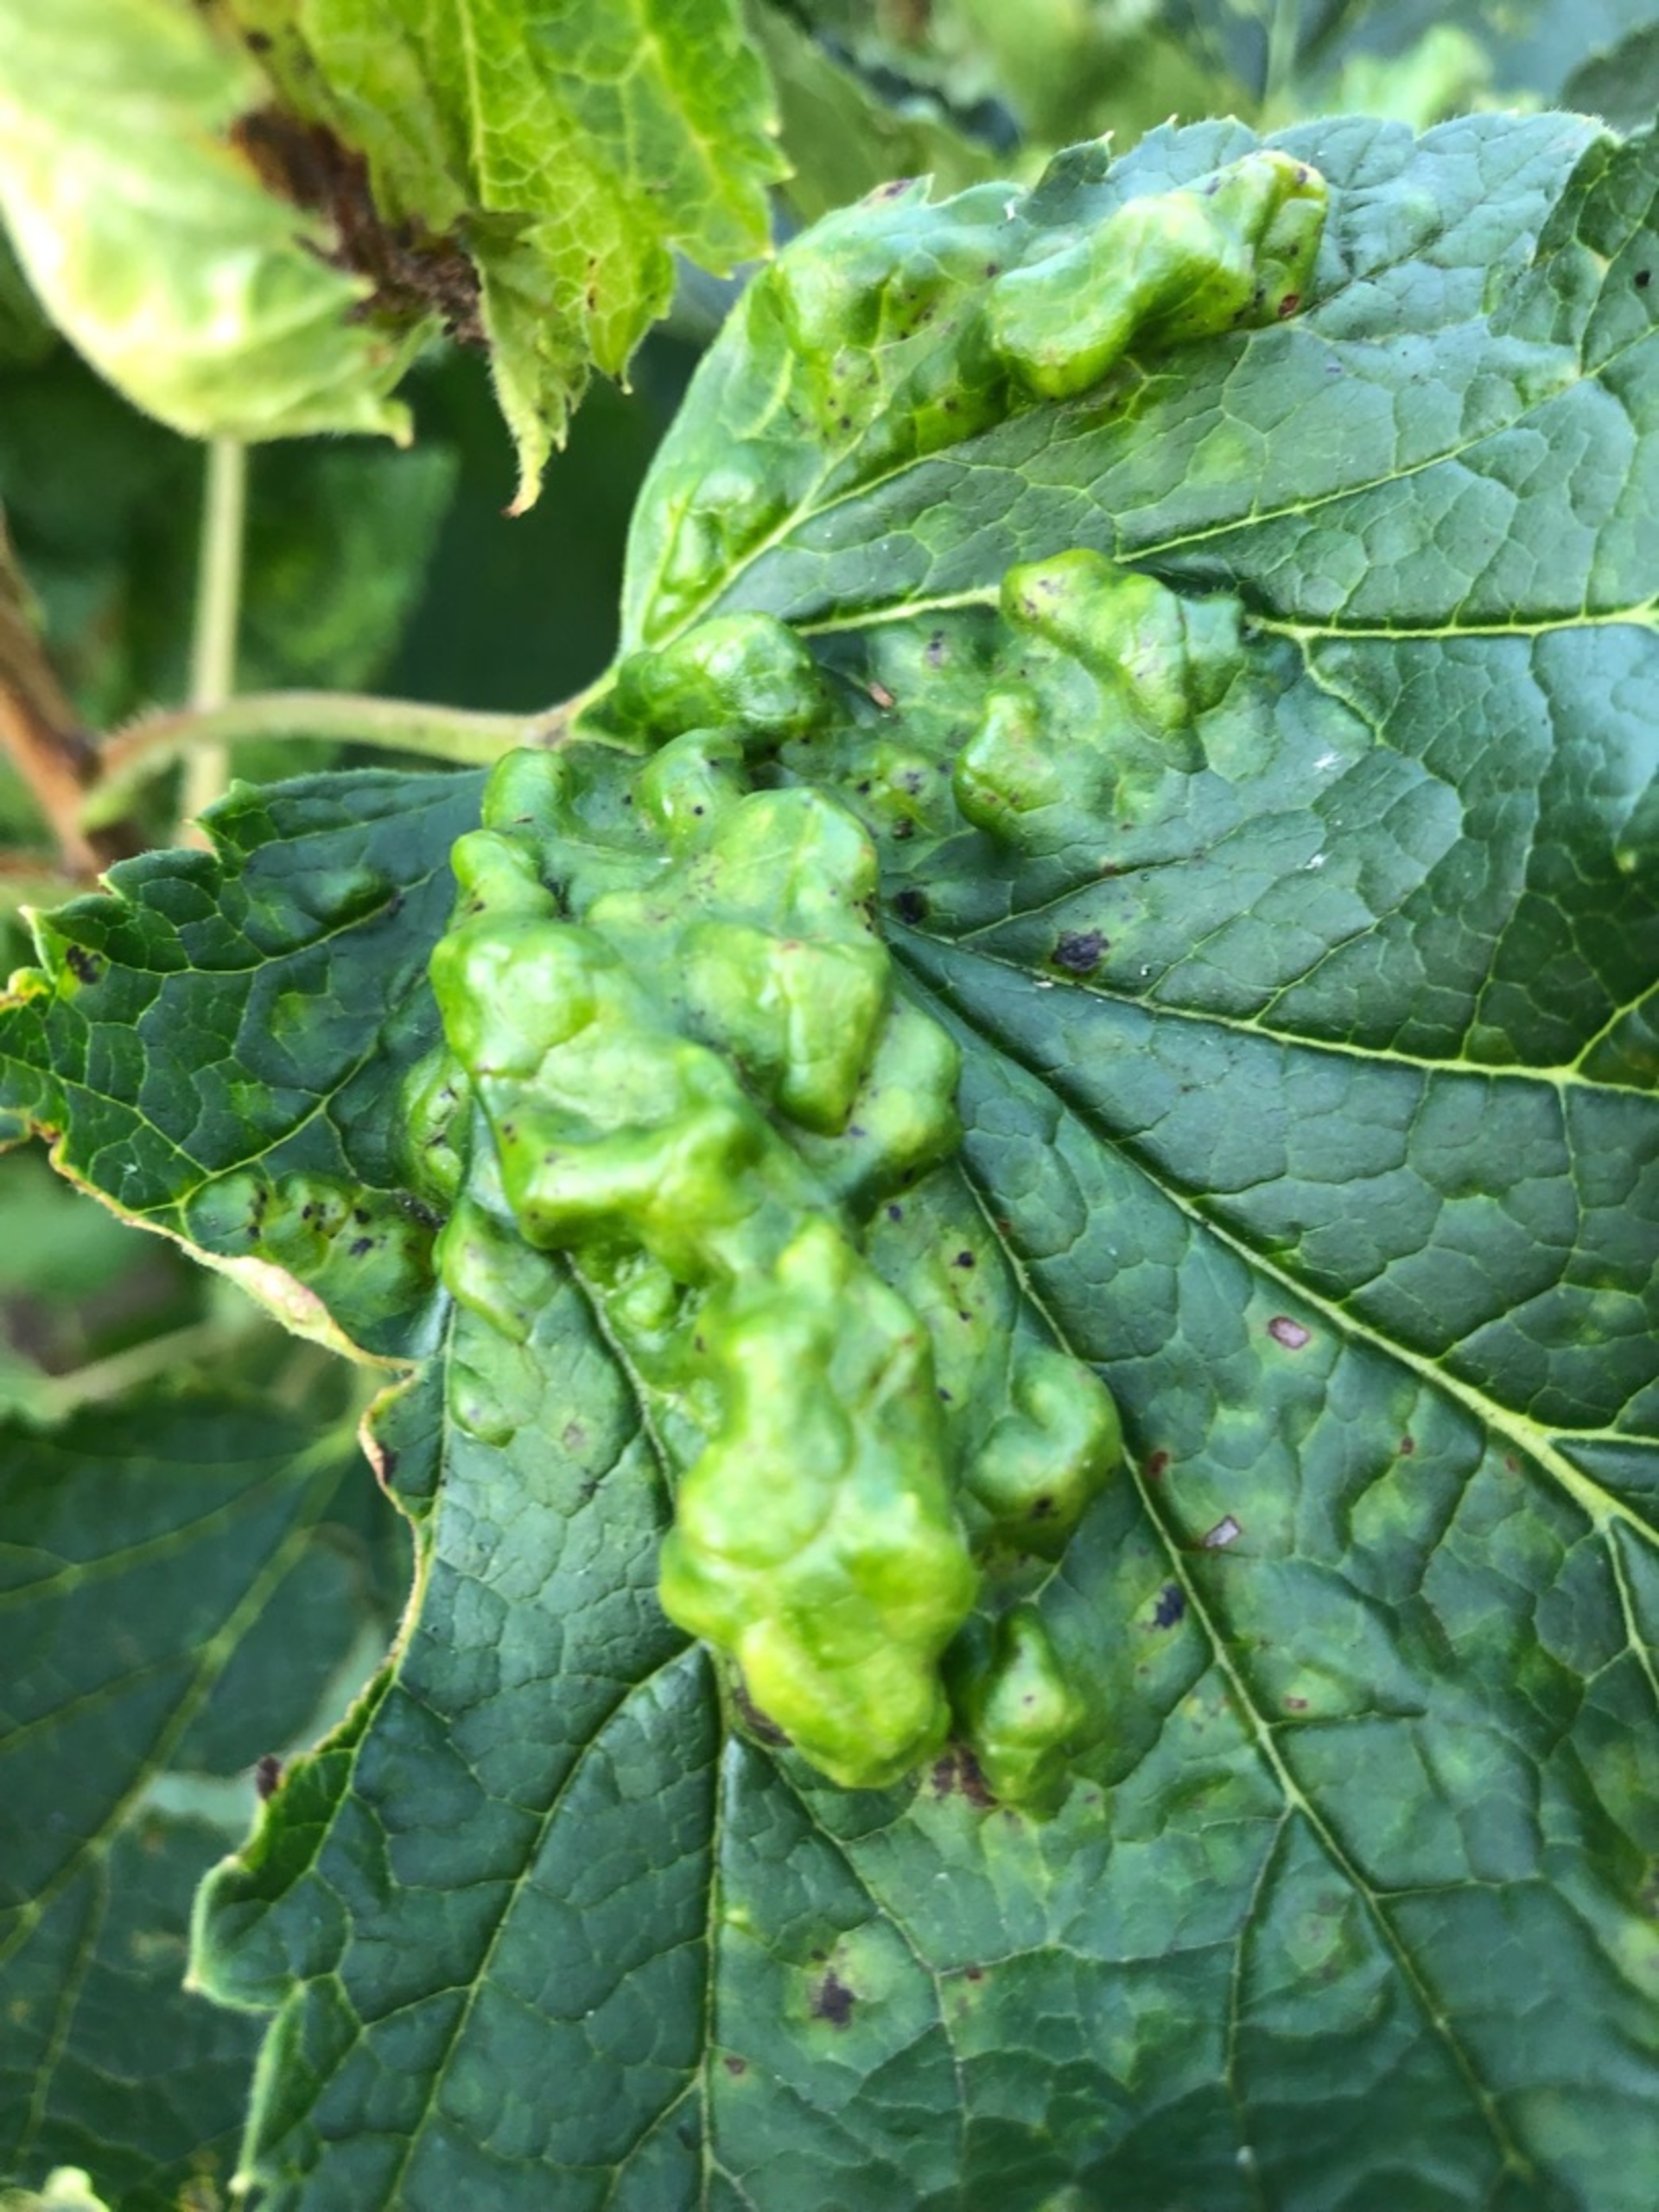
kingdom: Animalia
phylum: Arthropoda
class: Insecta
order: Hemiptera
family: Aphididae
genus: Cryptomyzus
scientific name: Cryptomyzus ribis
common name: Ribsbladlus
